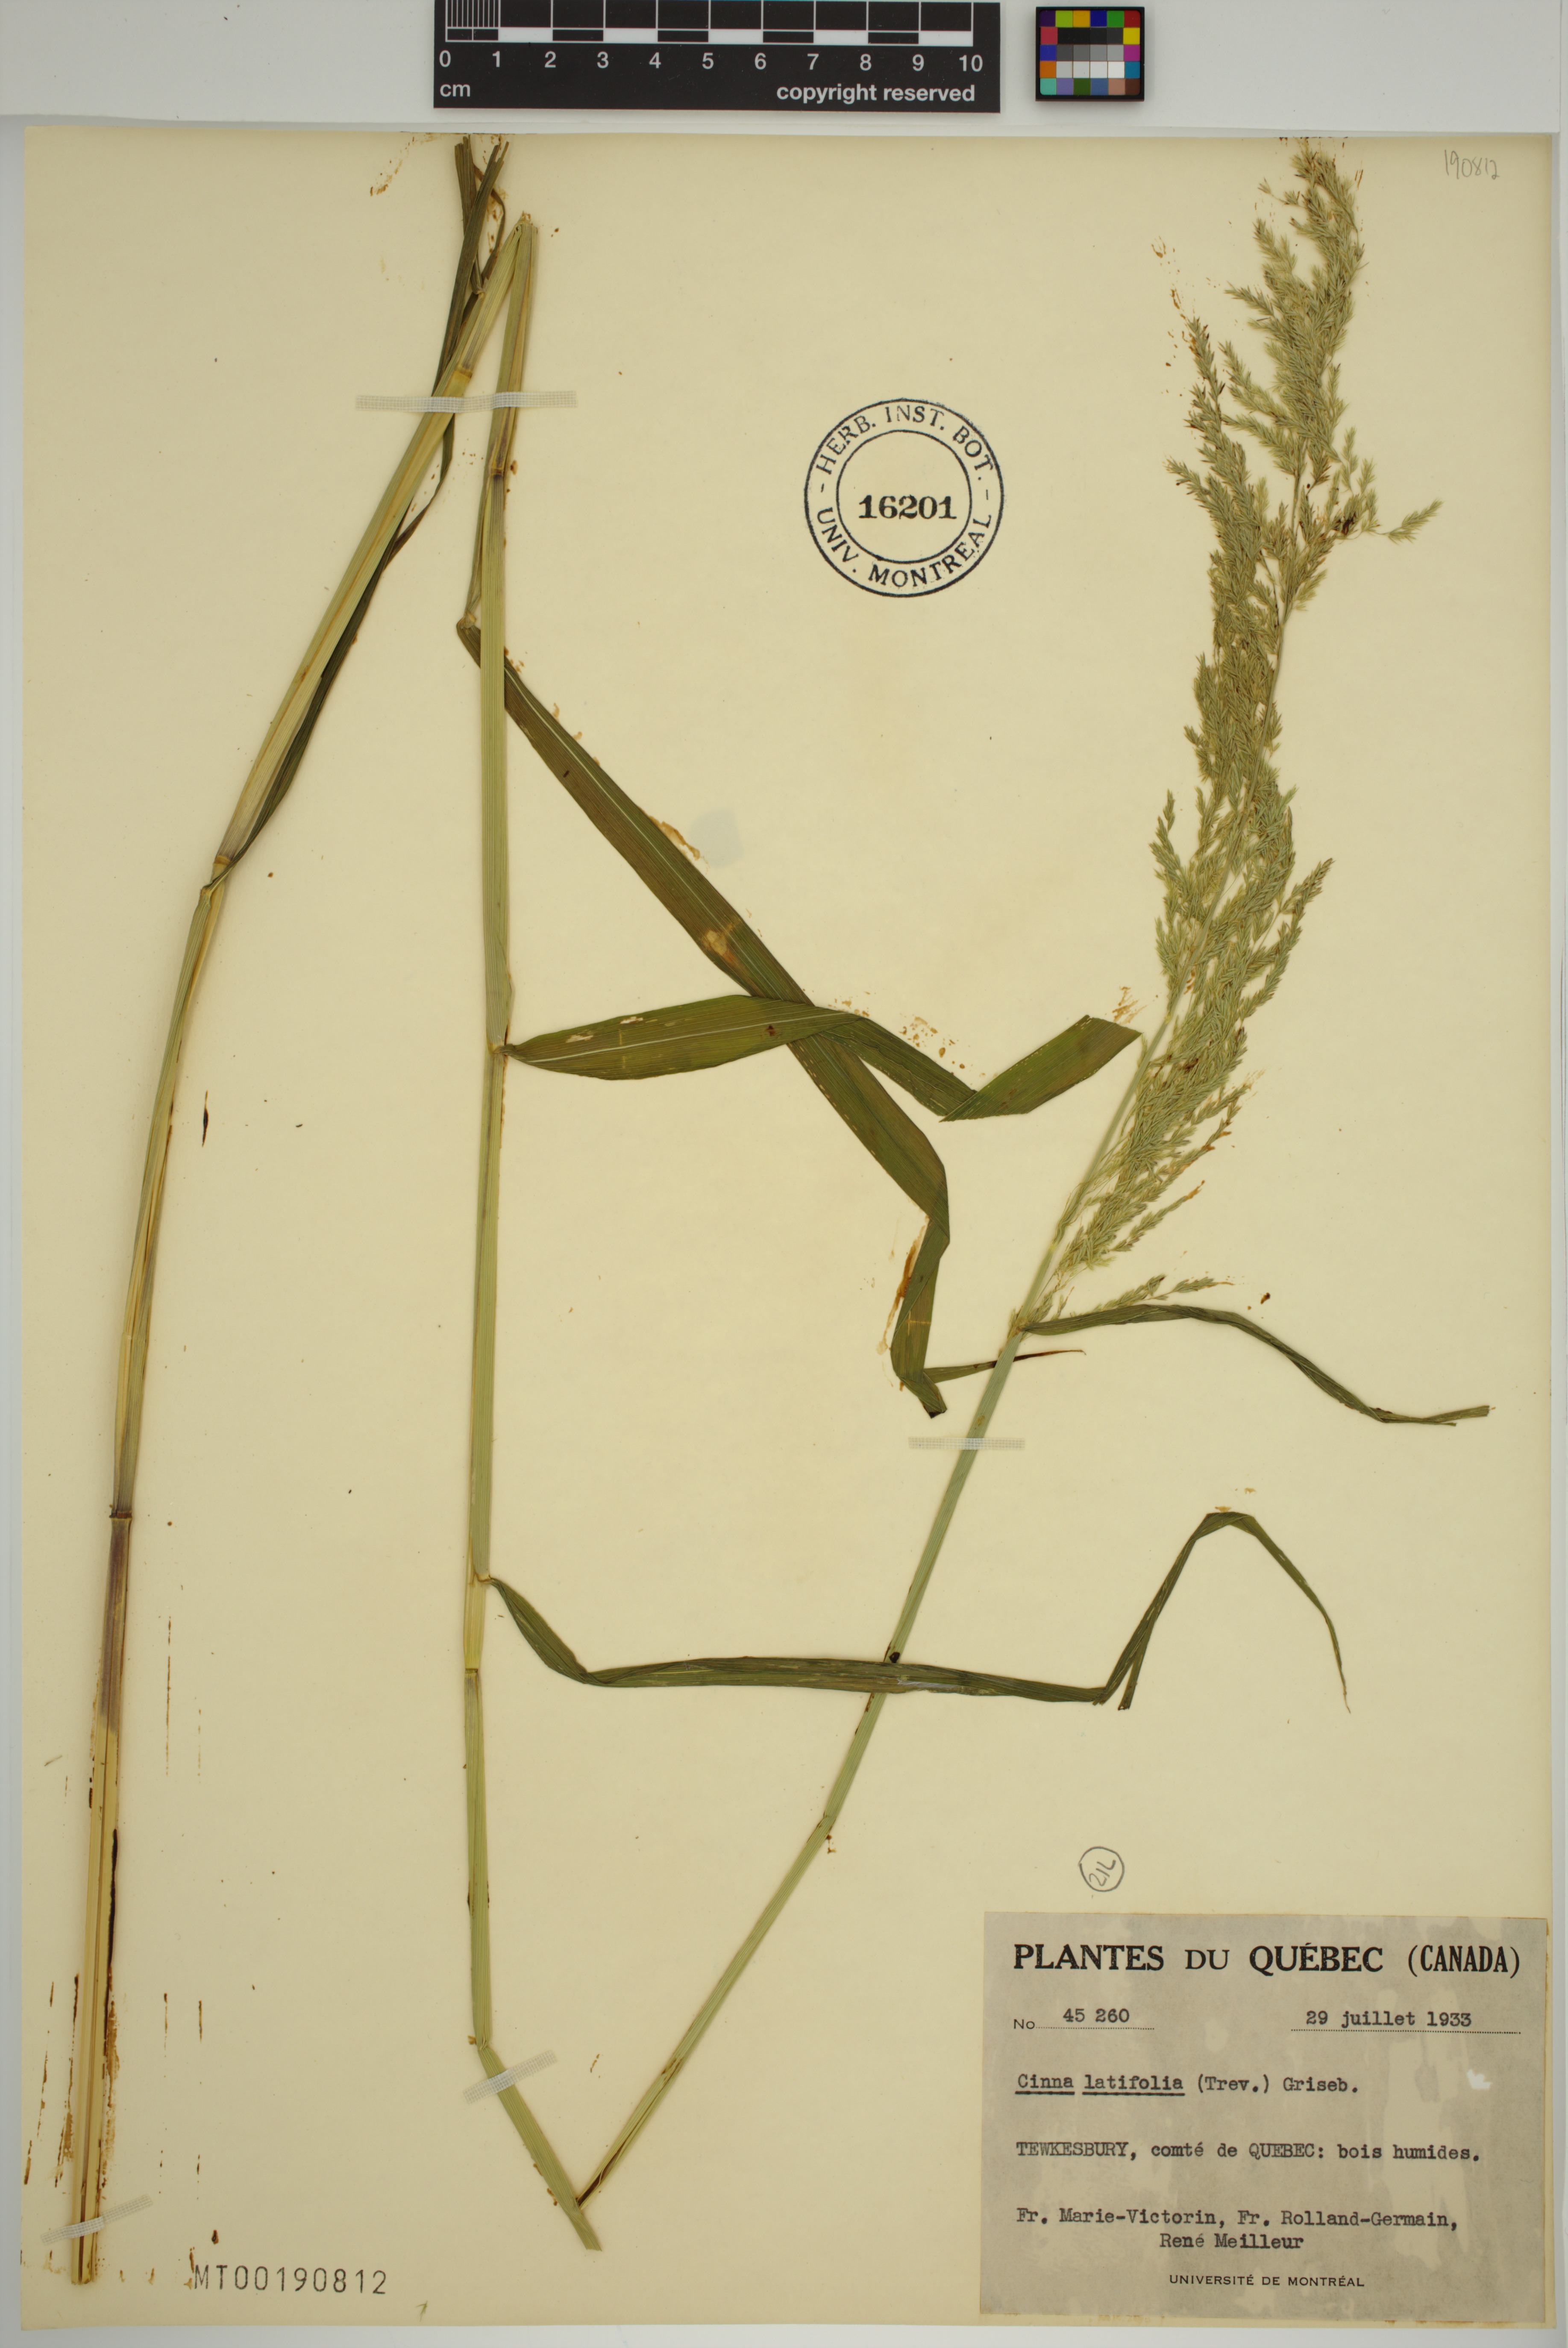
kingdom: Plantae
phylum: Tracheophyta
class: Liliopsida
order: Poales
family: Poaceae
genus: Cinna
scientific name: Cinna latifolia
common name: Drooping woodreed
